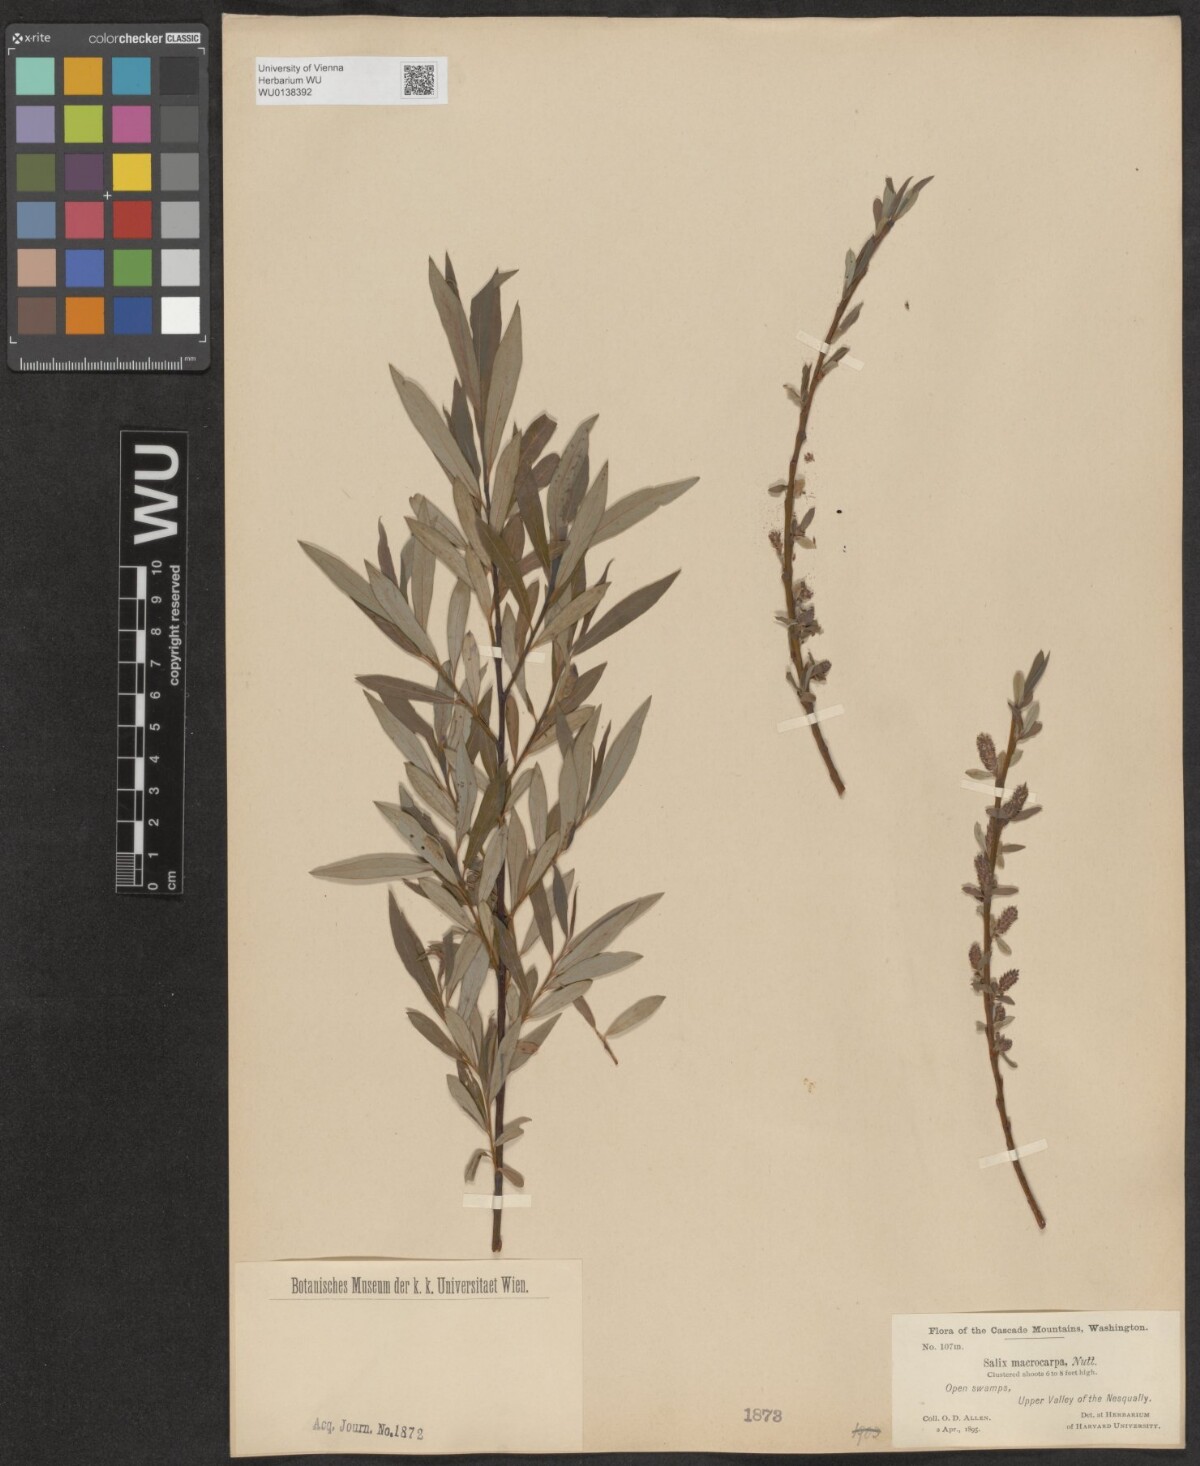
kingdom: Plantae
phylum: Tracheophyta
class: Magnoliopsida
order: Malpighiales
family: Salicaceae
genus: Salix
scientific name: Salix glauca
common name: Glaucous willow
